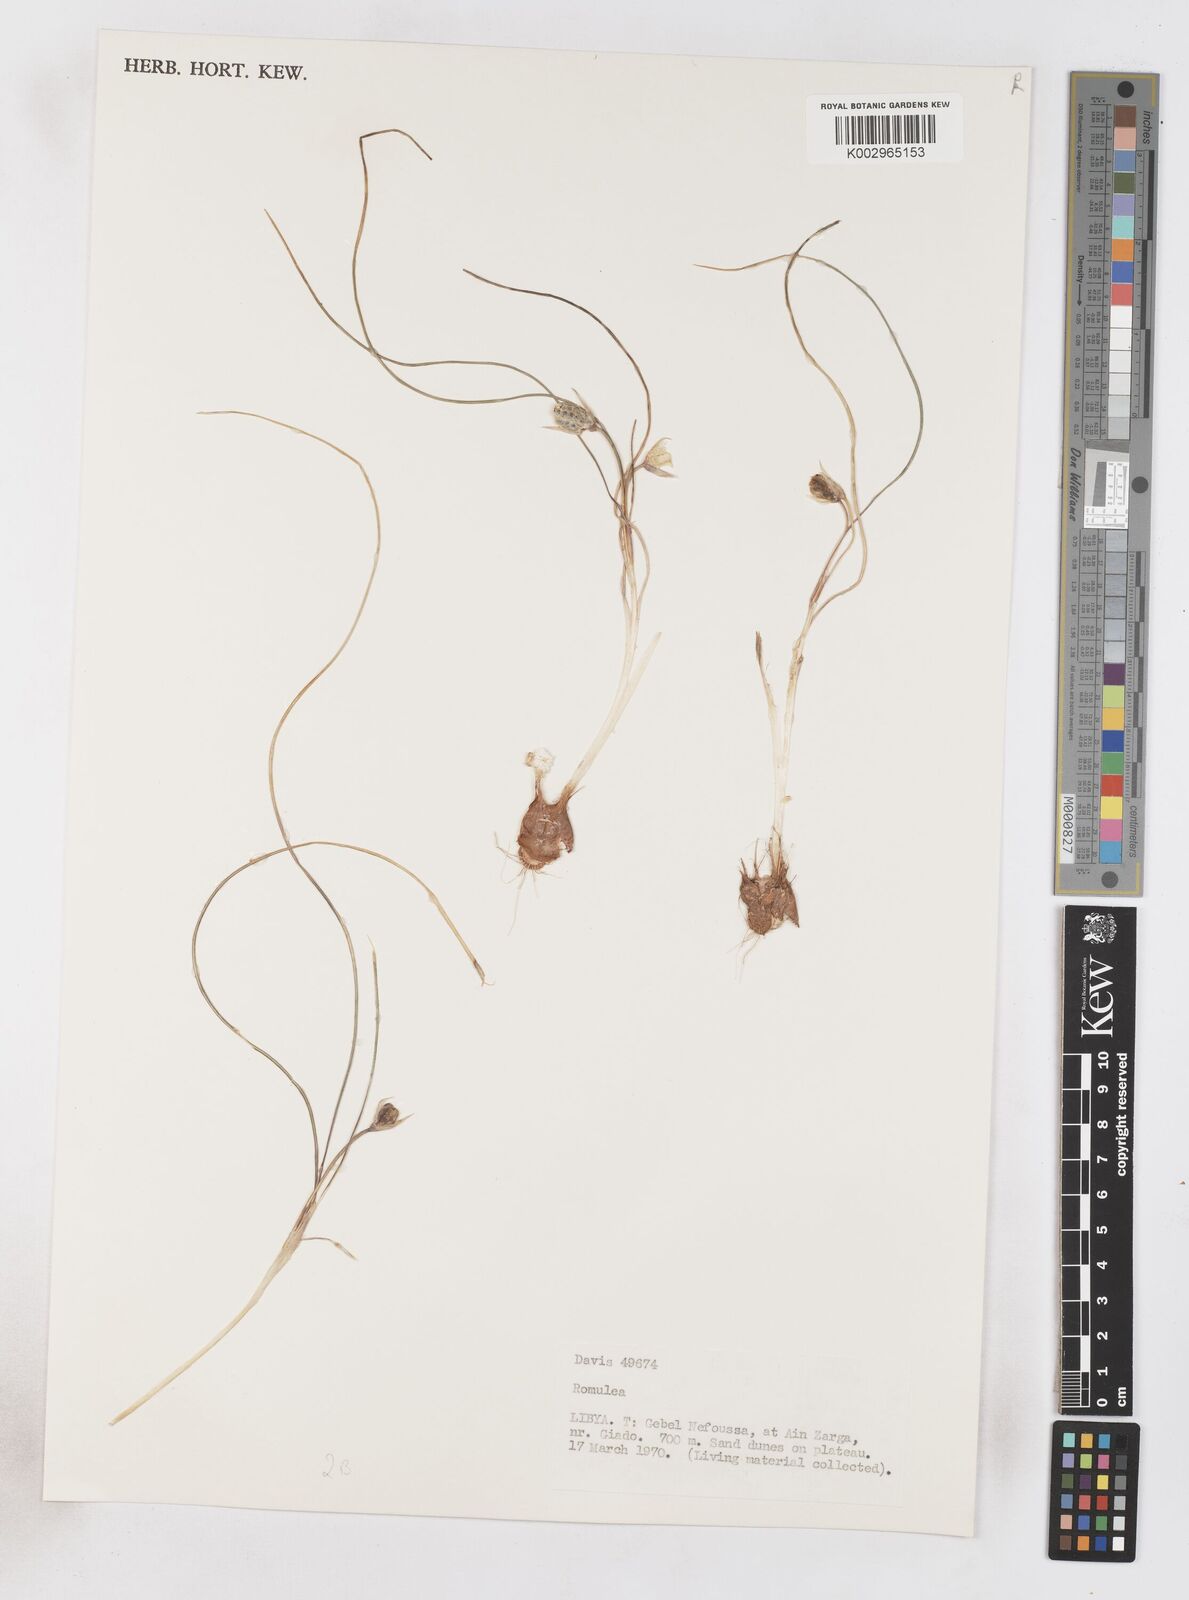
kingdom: Plantae
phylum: Tracheophyta
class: Liliopsida
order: Asparagales
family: Iridaceae
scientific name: Iridaceae
